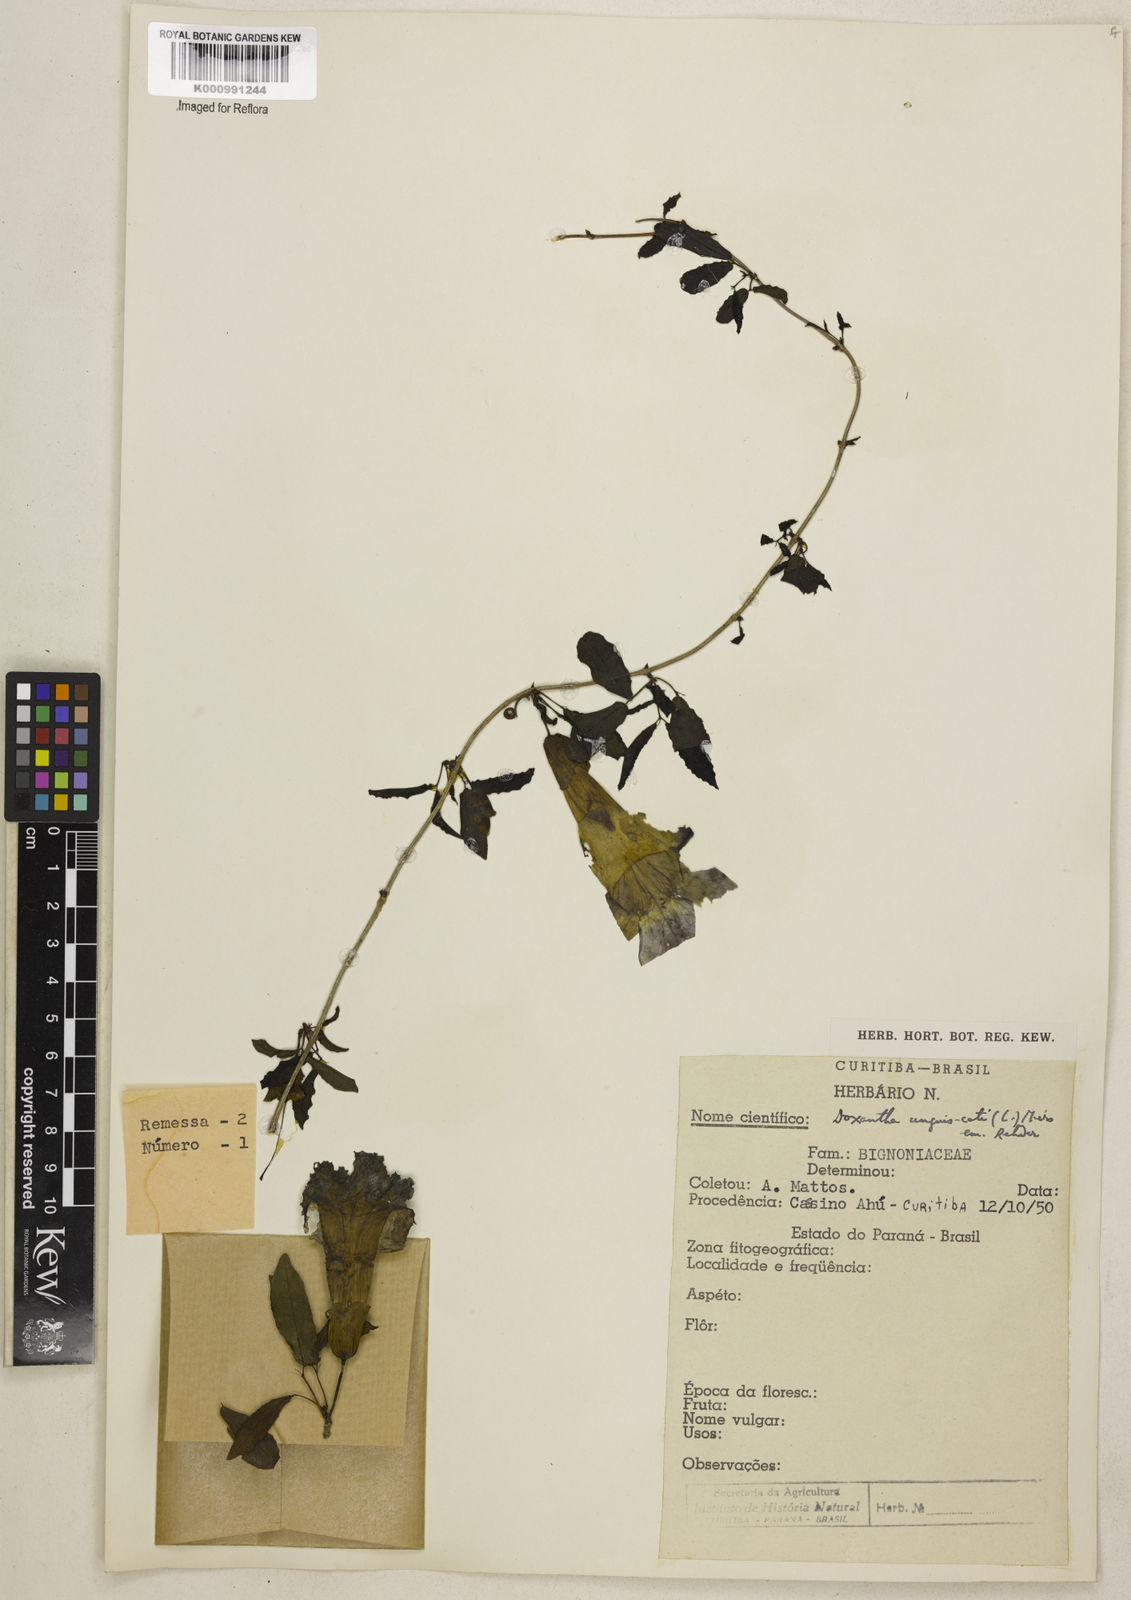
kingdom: Plantae
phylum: Tracheophyta
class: Magnoliopsida
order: Lamiales
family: Bignoniaceae
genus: Dolichandra
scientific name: Dolichandra unguis-cati
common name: Catclaw vine
